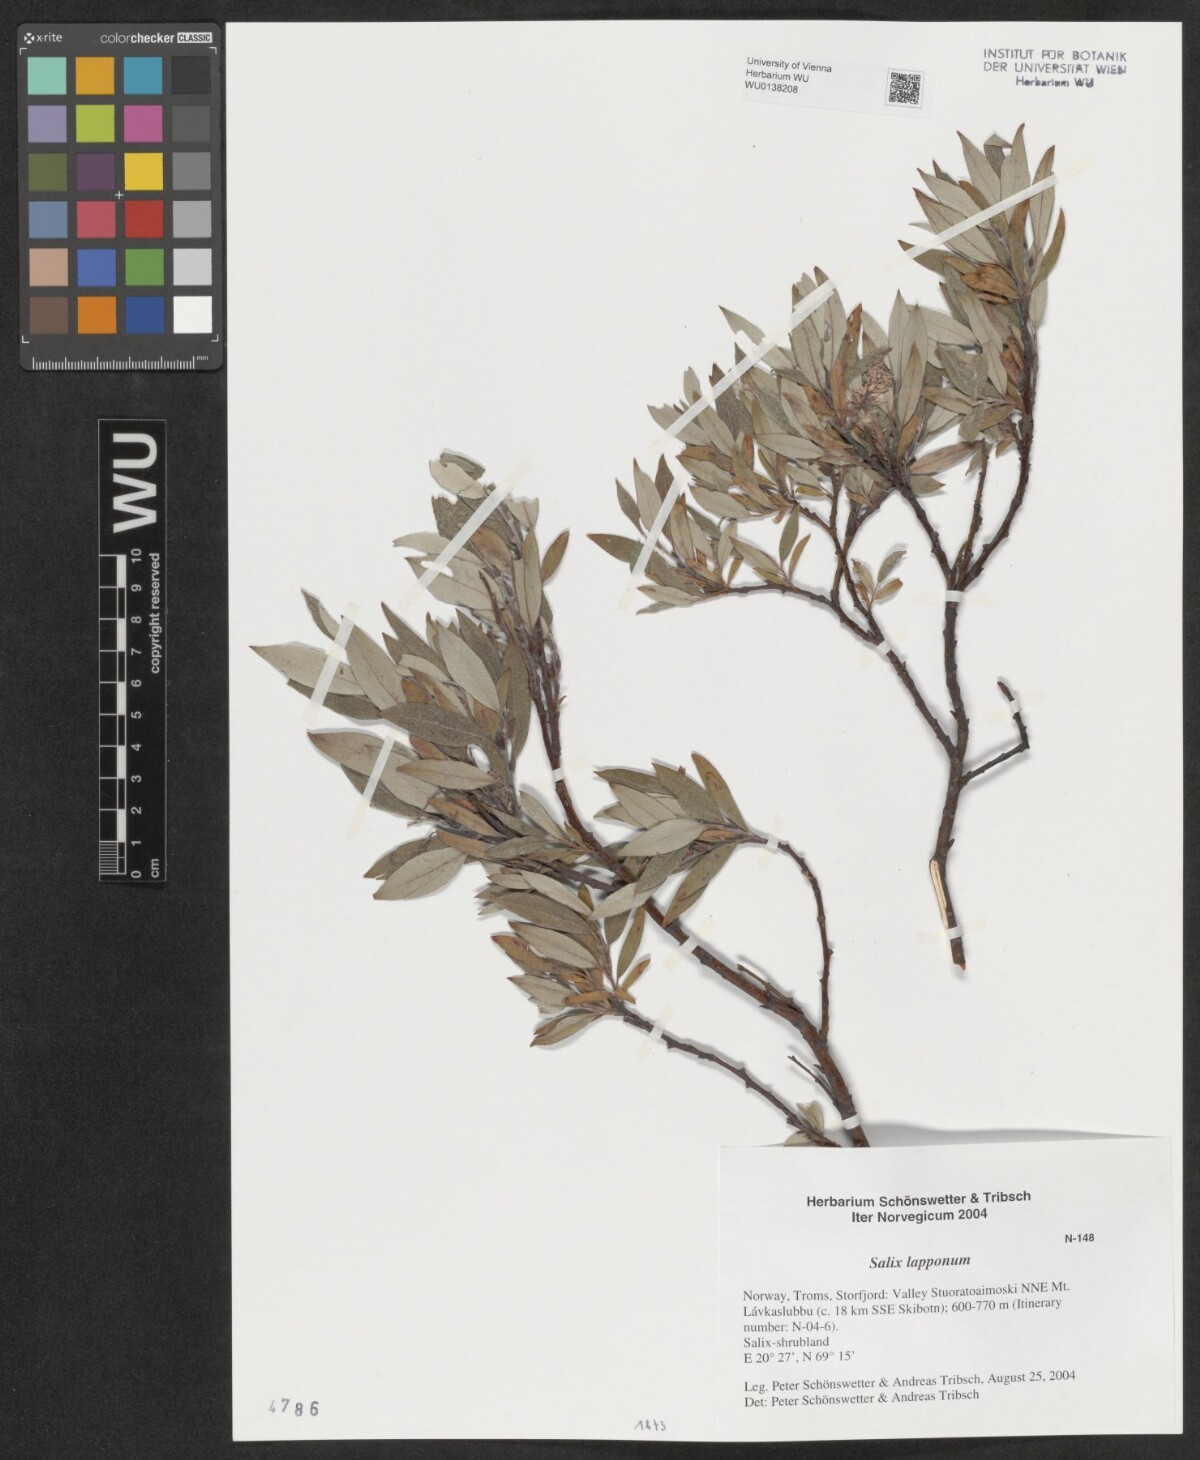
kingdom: Plantae
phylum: Tracheophyta
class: Magnoliopsida
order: Malpighiales
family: Salicaceae
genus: Salix
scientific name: Salix lapponum
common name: Downy willow
